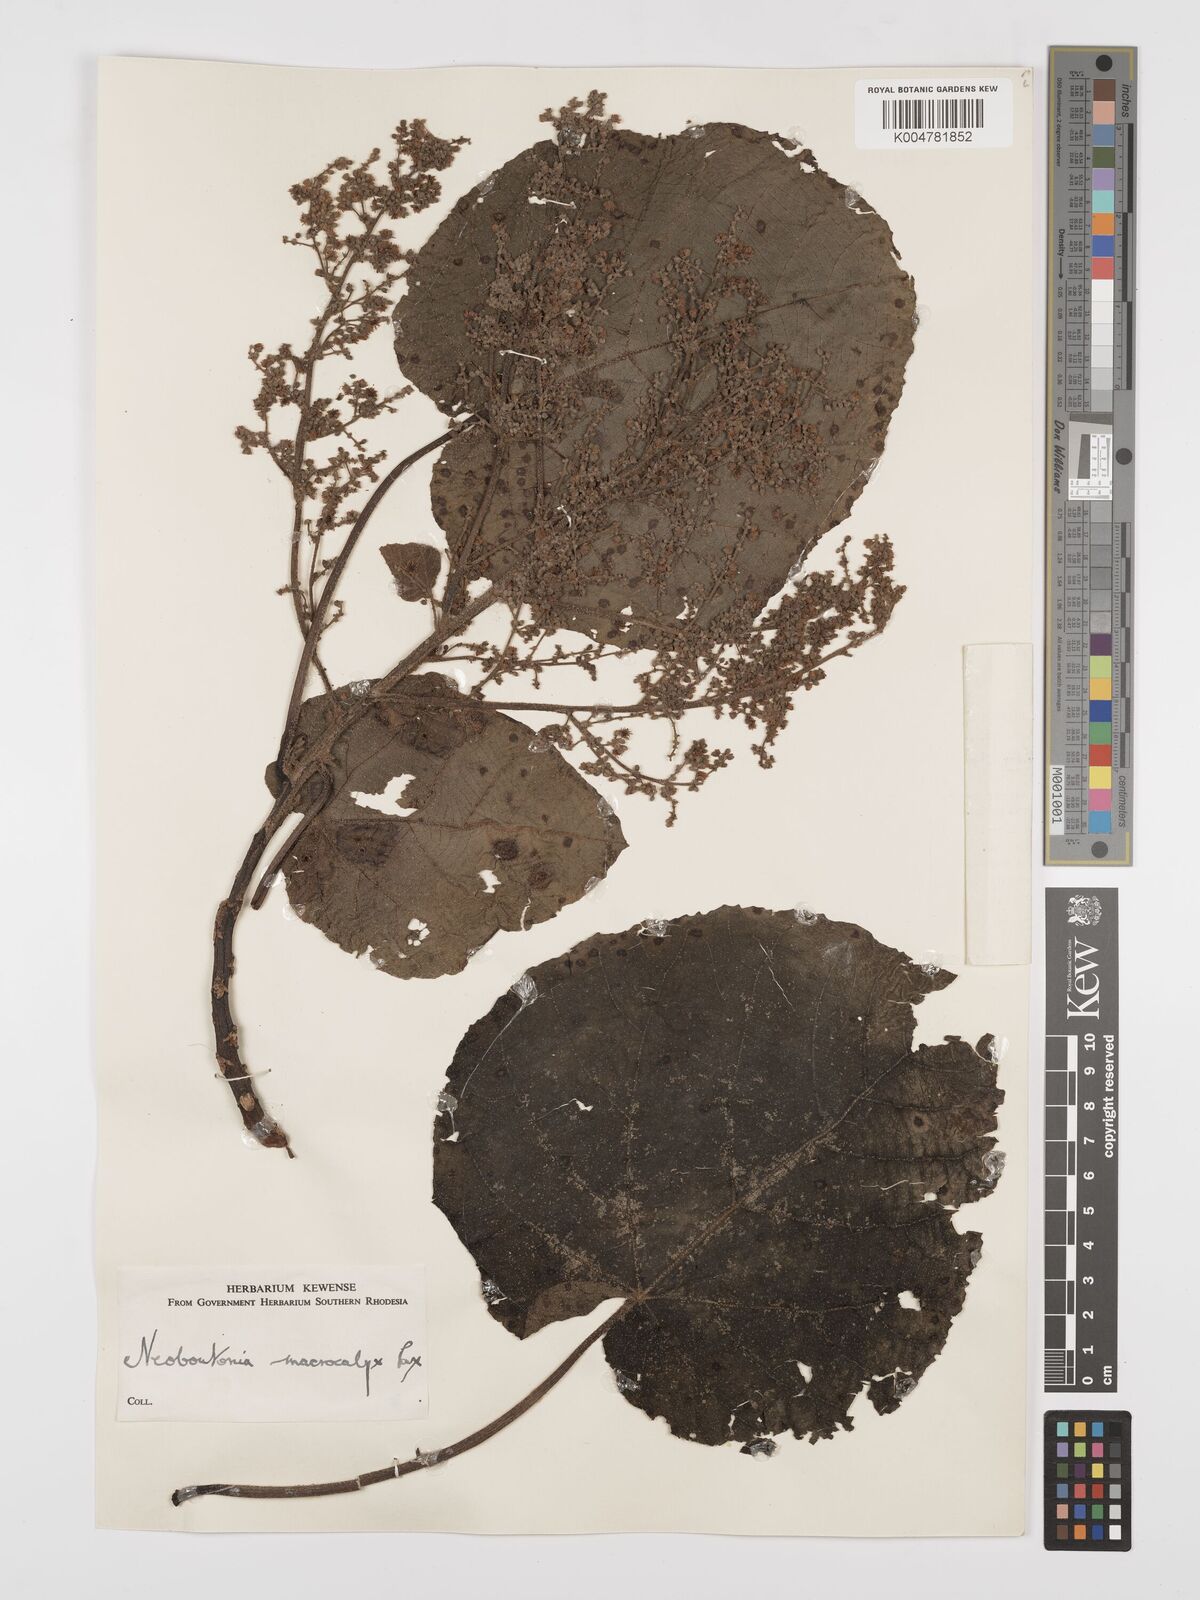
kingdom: Plantae
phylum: Tracheophyta
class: Magnoliopsida
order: Malpighiales
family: Euphorbiaceae
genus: Neoboutonia
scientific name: Neoboutonia macrocalyx
